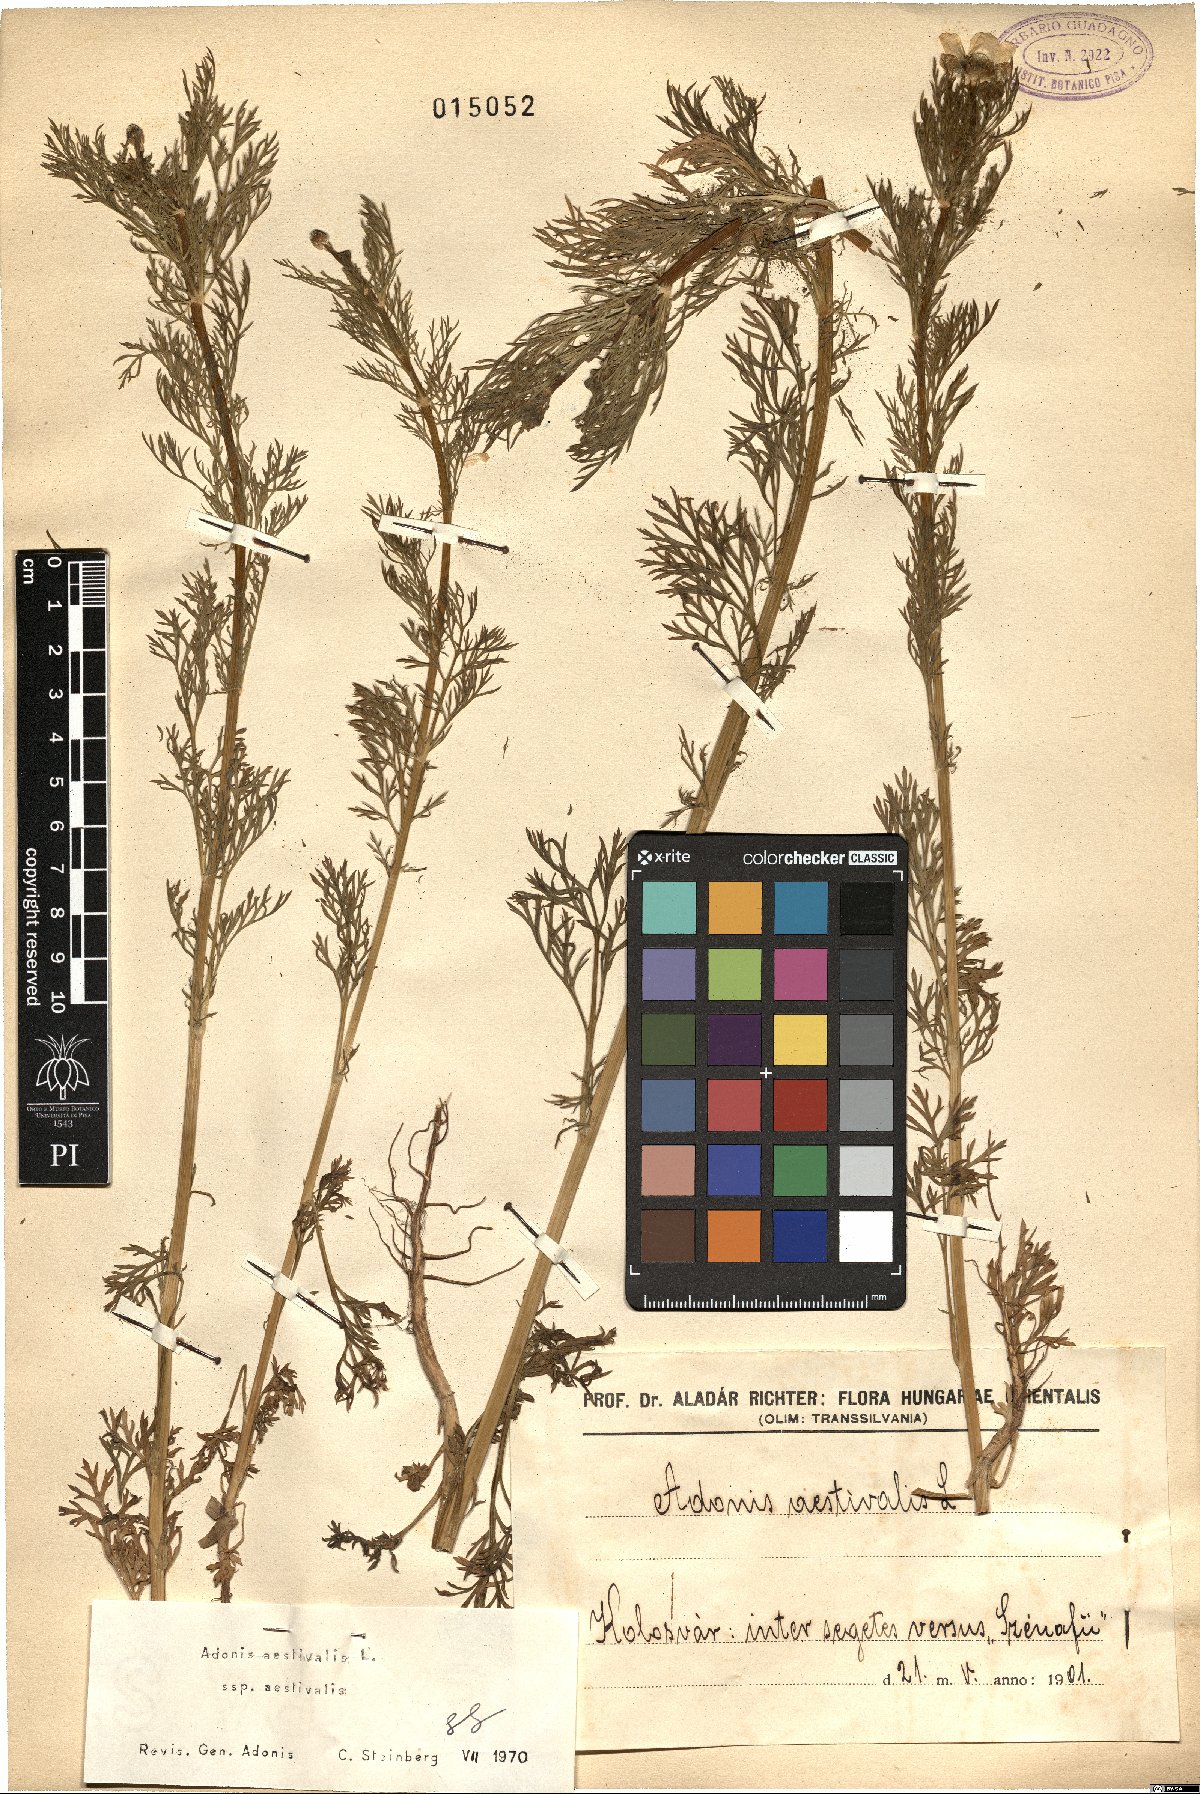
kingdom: Plantae
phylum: Tracheophyta
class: Magnoliopsida
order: Ranunculales
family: Ranunculaceae
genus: Adonis
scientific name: Adonis aestivalis
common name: Summer pheasant's-eye
